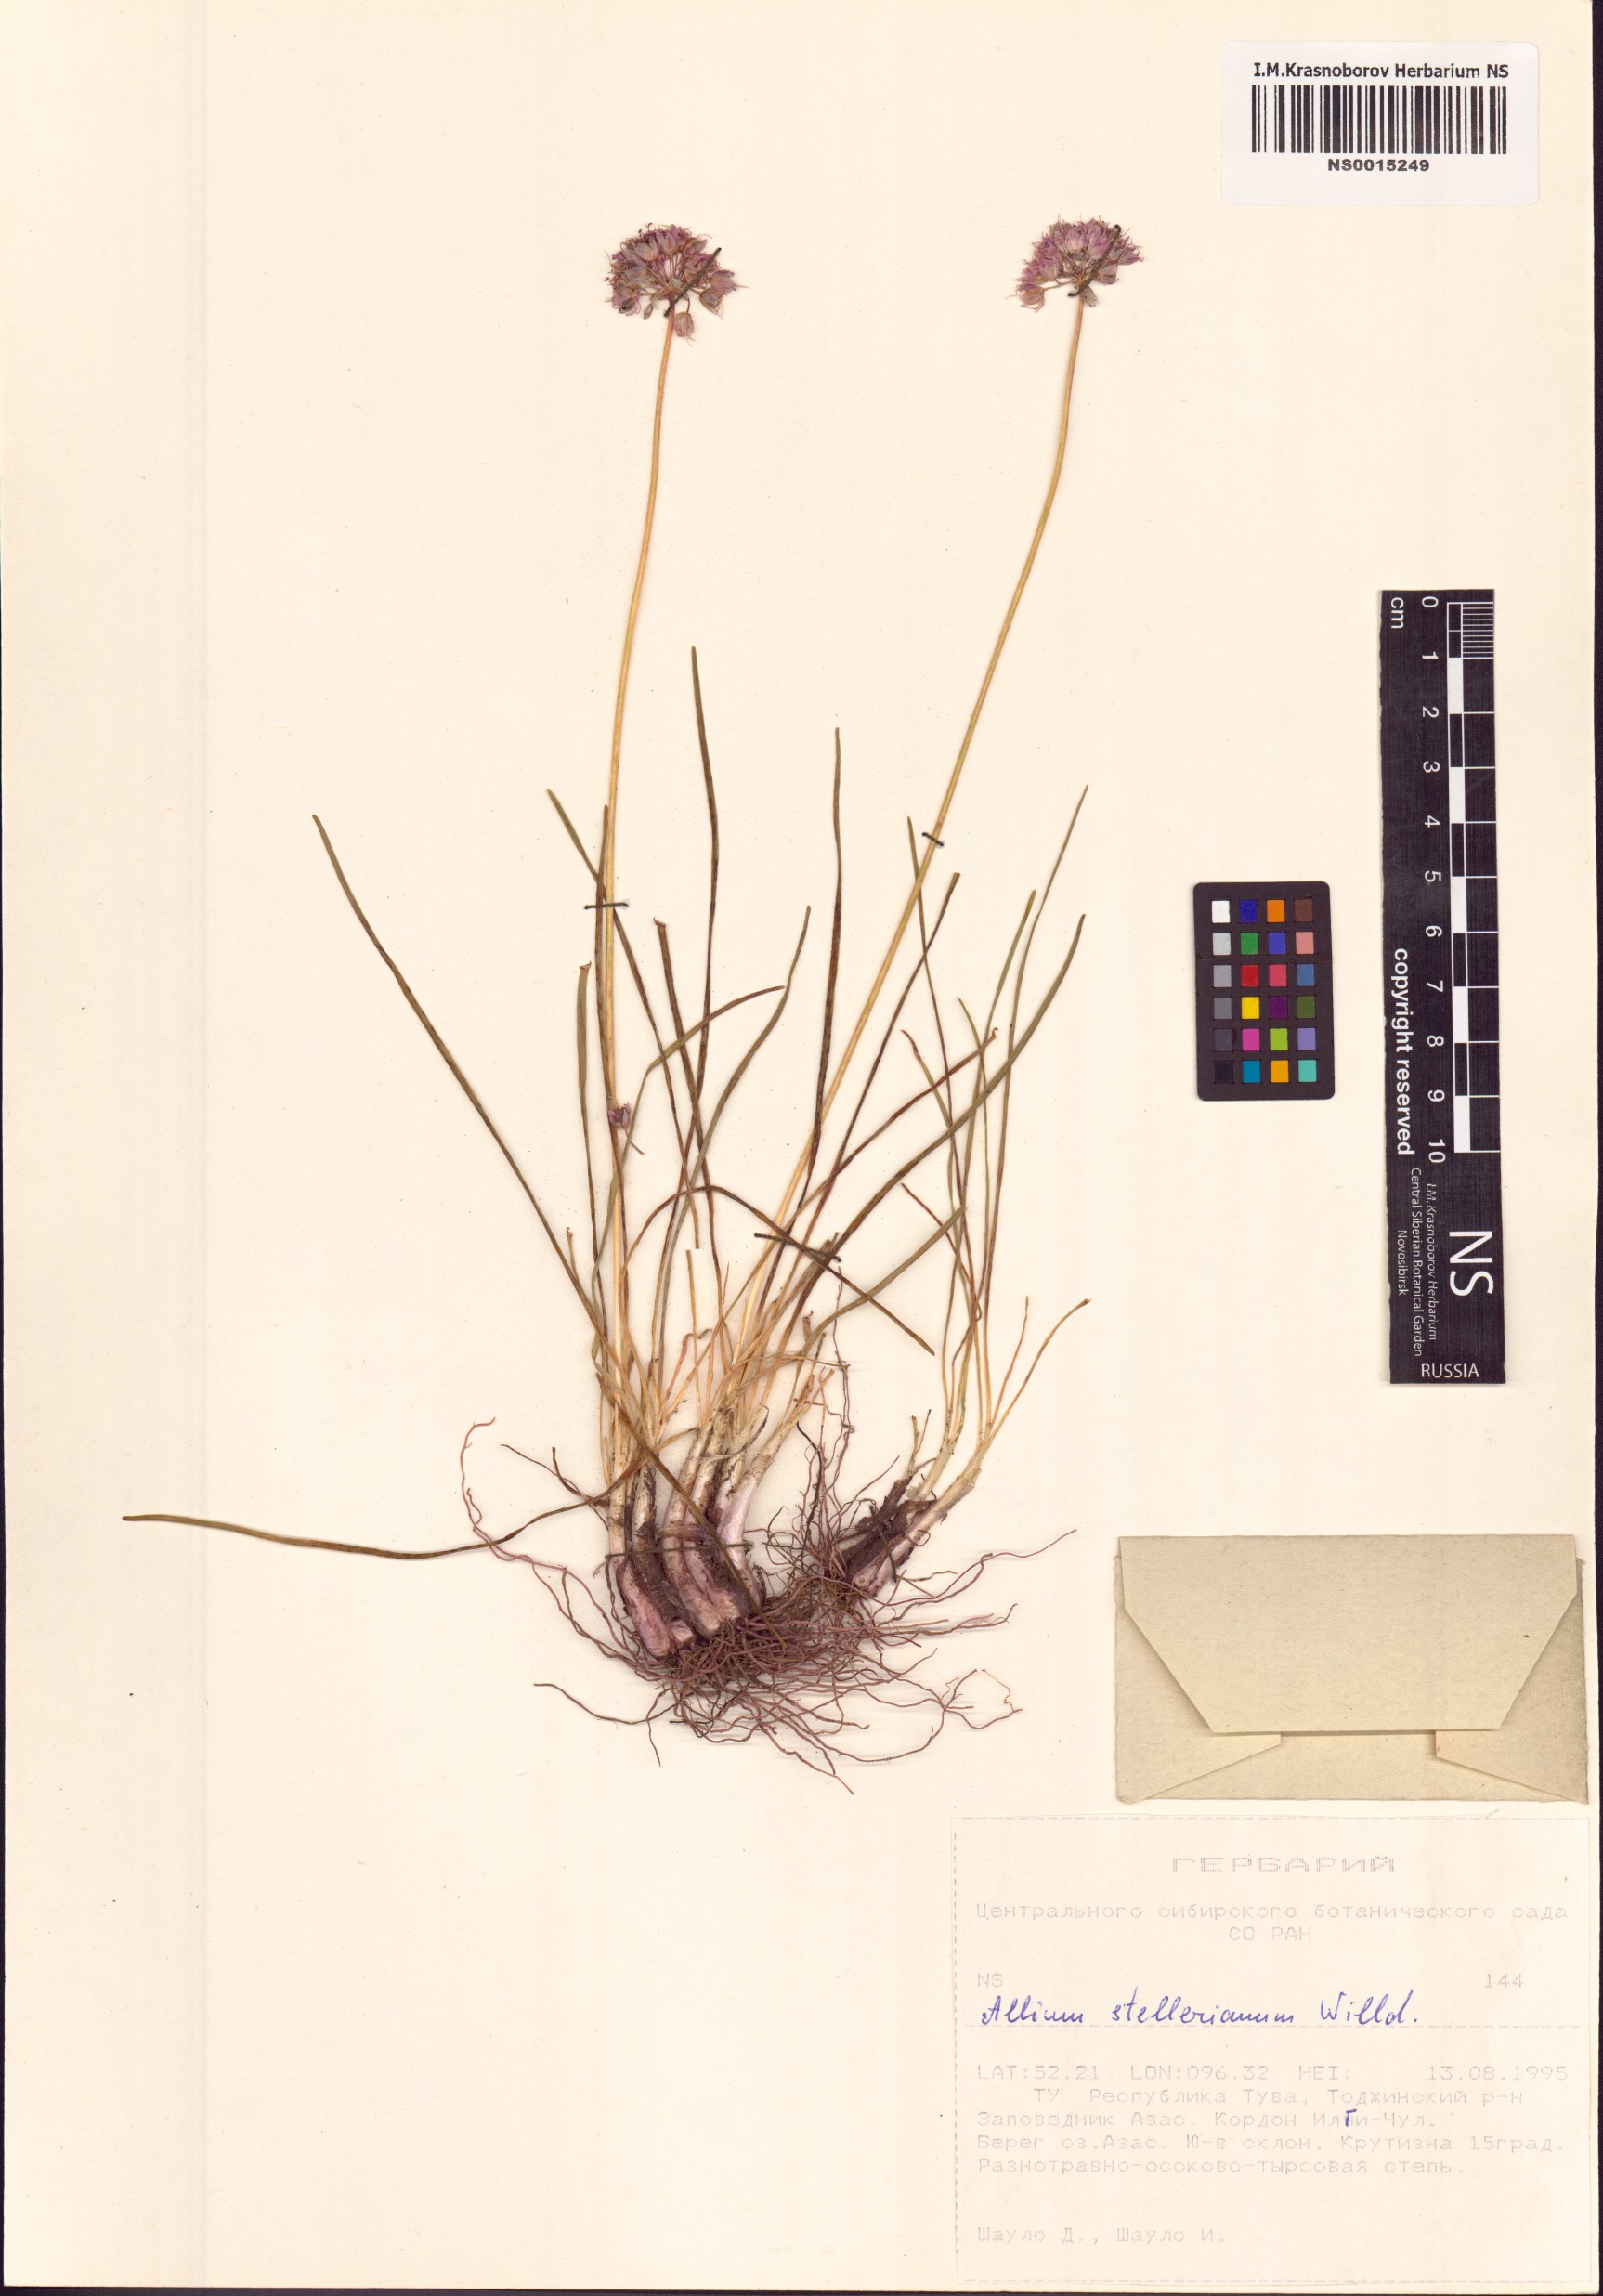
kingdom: Plantae
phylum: Tracheophyta
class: Liliopsida
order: Asparagales
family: Amaryllidaceae
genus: Allium
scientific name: Allium stellerianum
